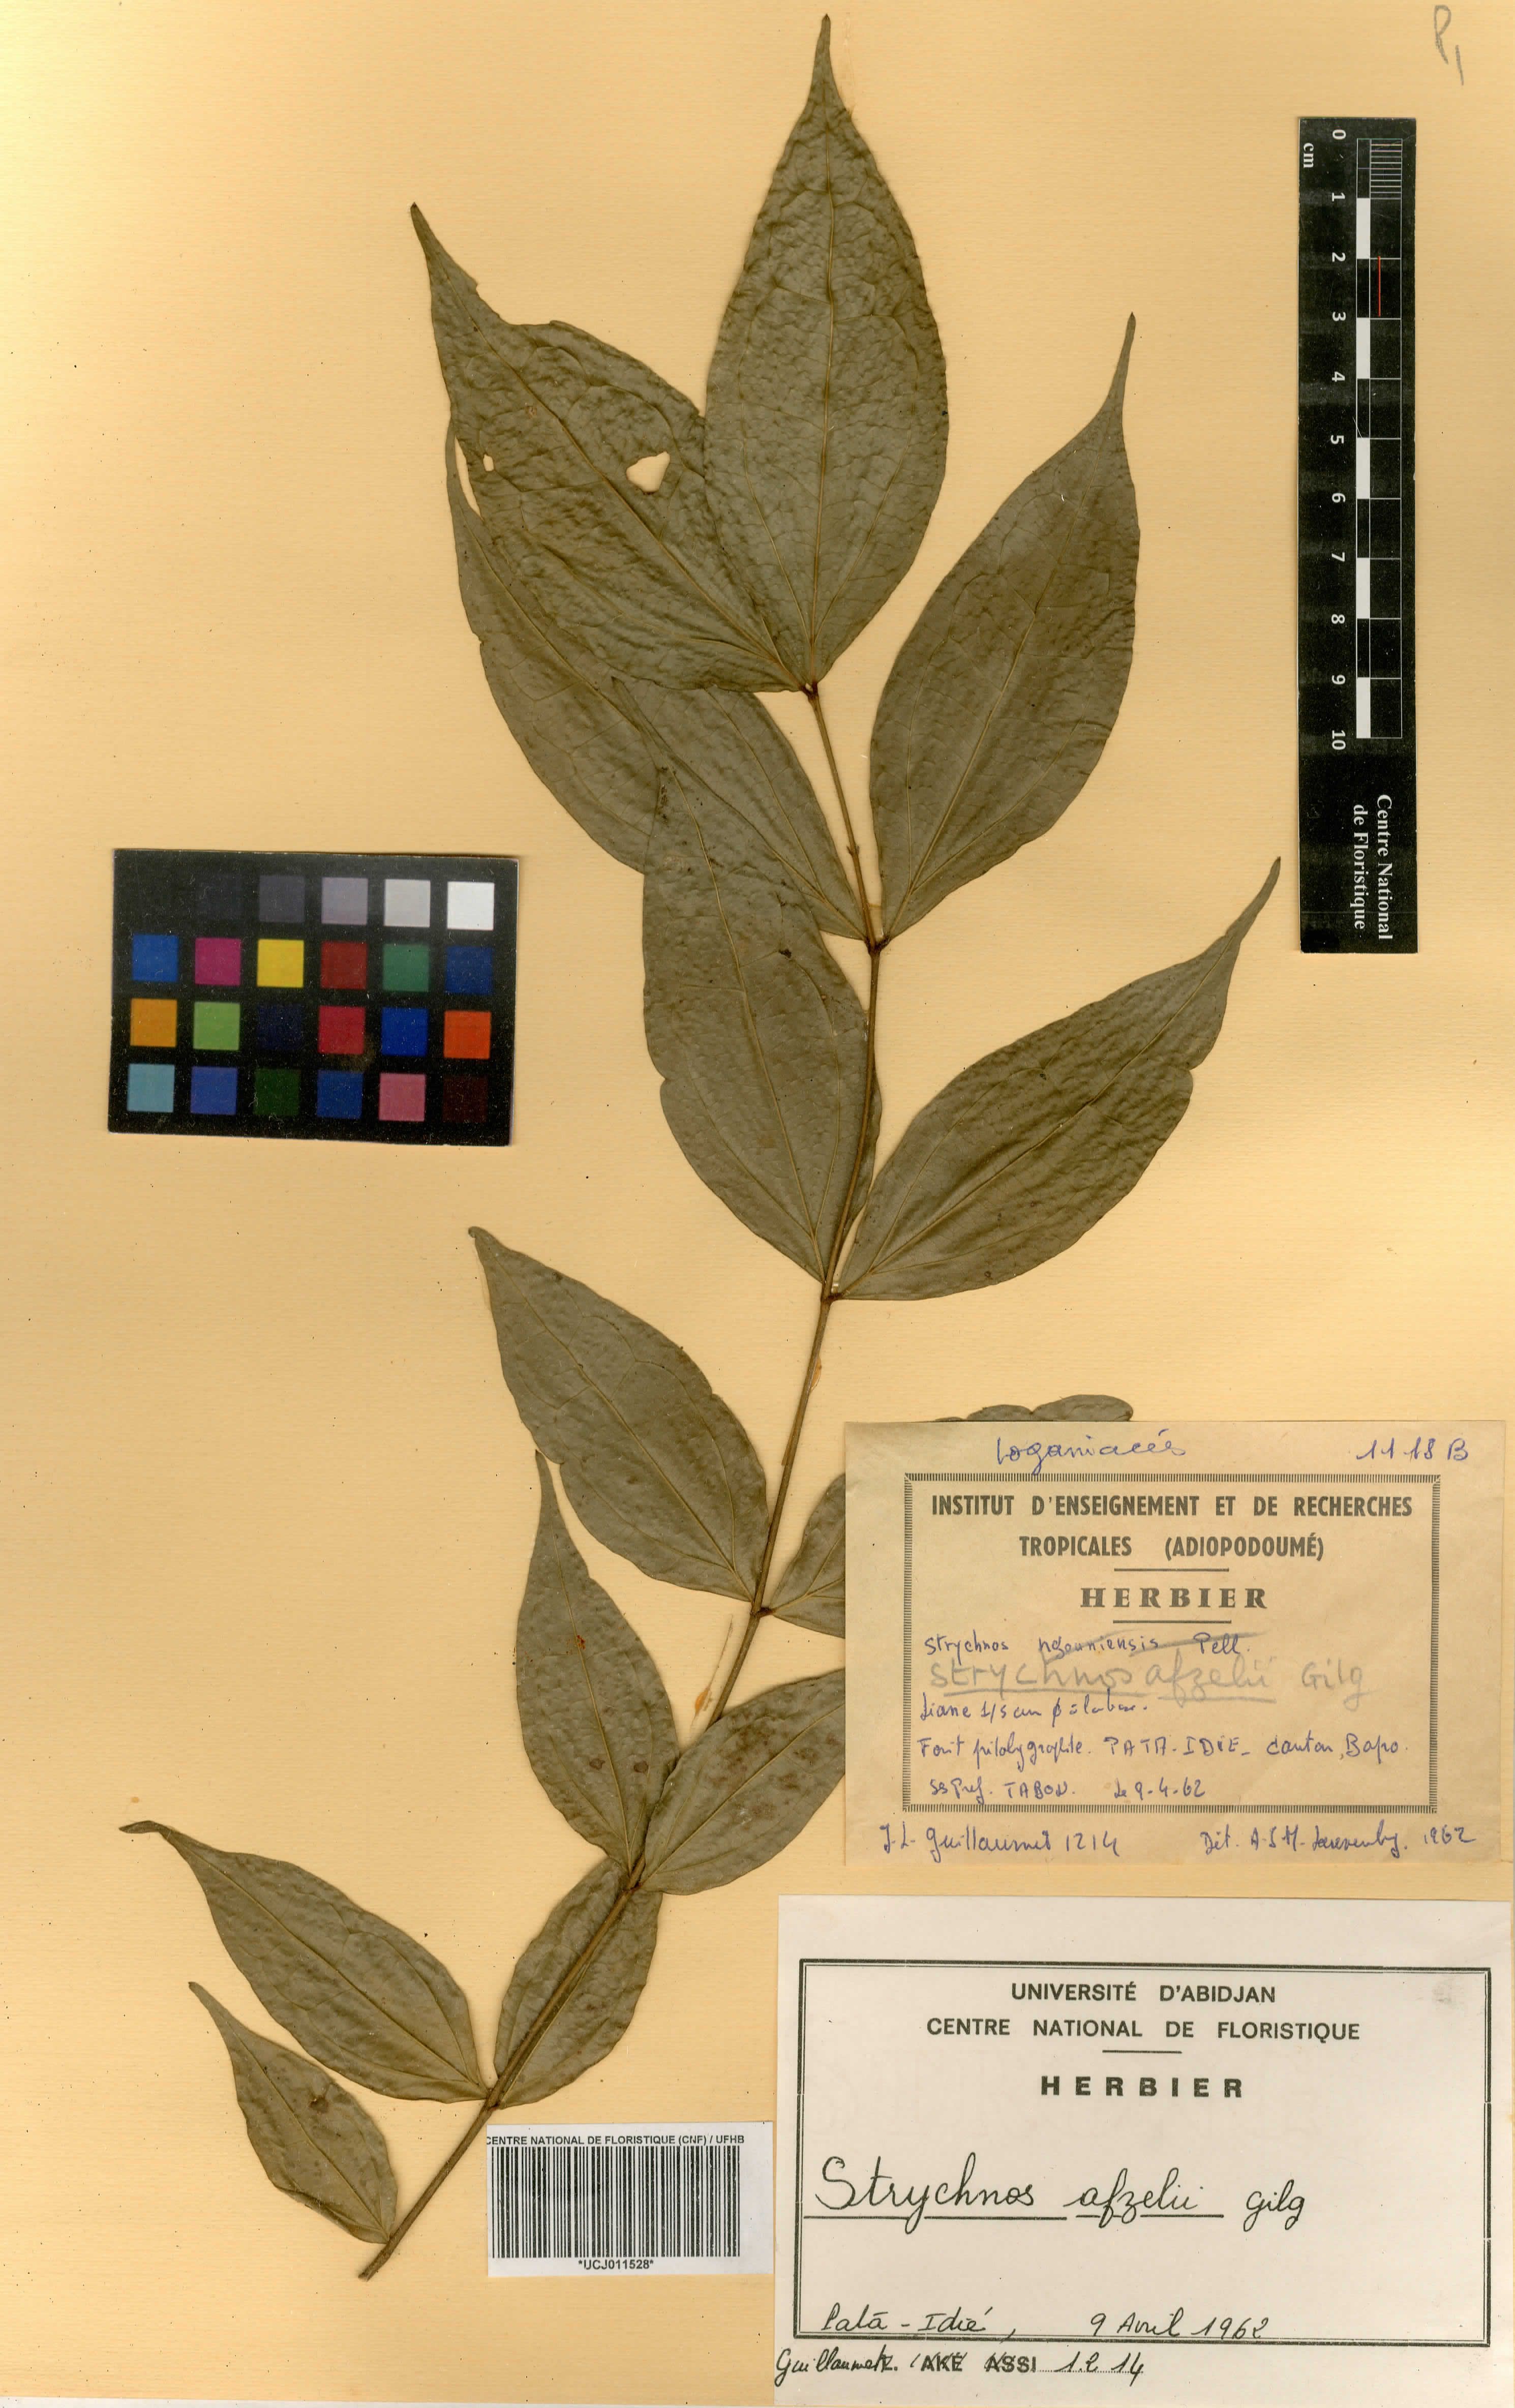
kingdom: Plantae
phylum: Tracheophyta
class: Magnoliopsida
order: Gentianales
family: Loganiaceae
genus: Strychnos
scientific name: Strychnos afzelii
